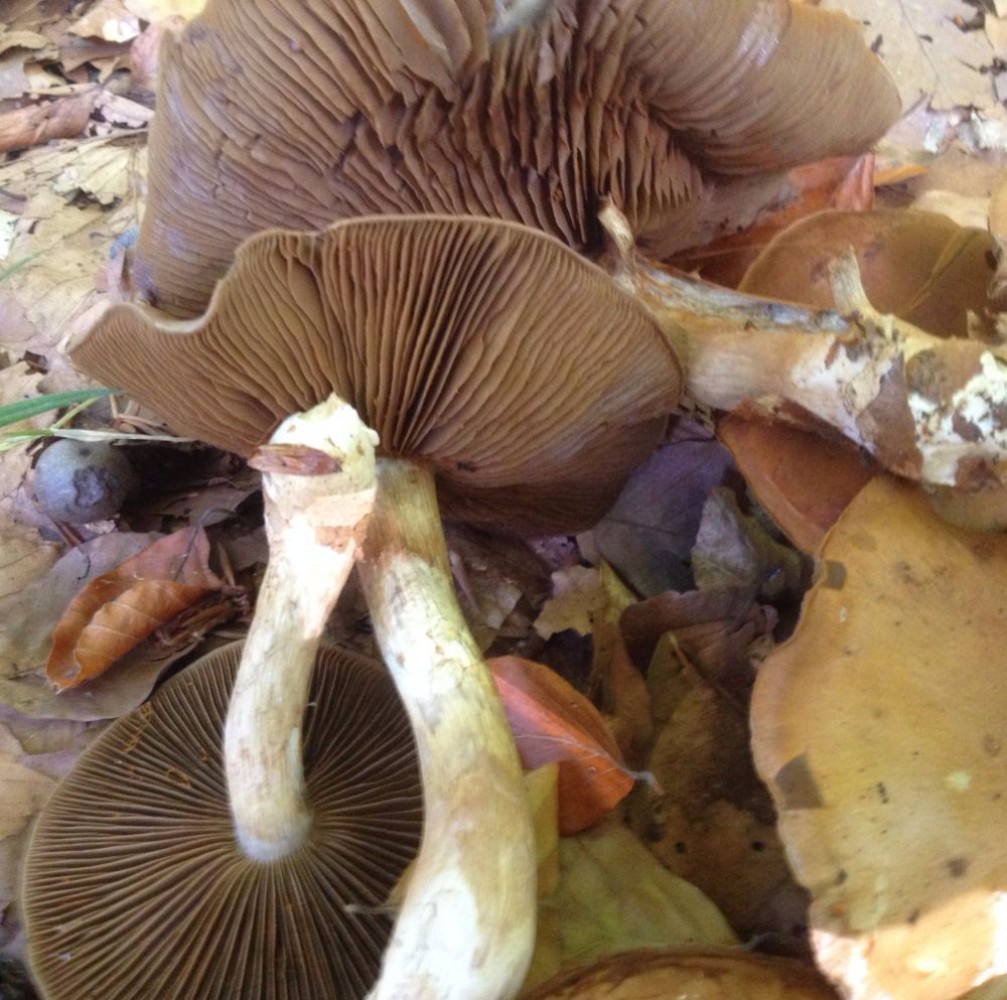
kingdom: Fungi
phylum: Basidiomycota
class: Agaricomycetes
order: Agaricales
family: Cortinariaceae
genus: Cortinarius
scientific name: Cortinarius
